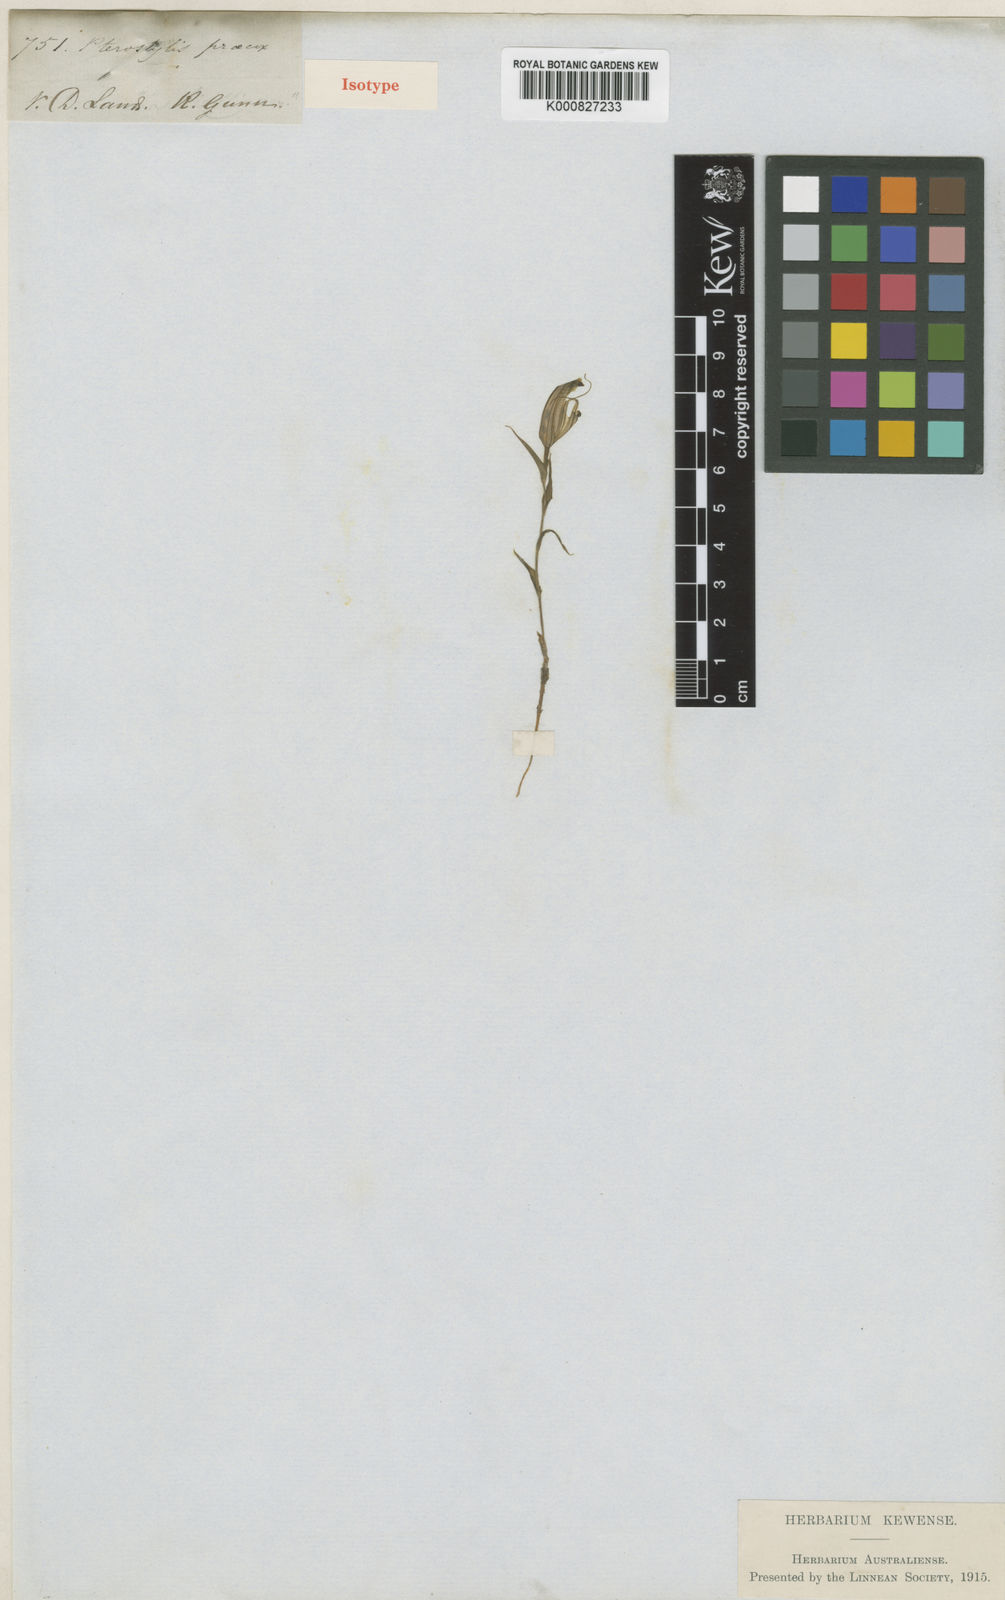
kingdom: Plantae
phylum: Tracheophyta
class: Liliopsida
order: Asparagales
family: Orchidaceae
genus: Pterostylis
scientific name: Pterostylis alata
